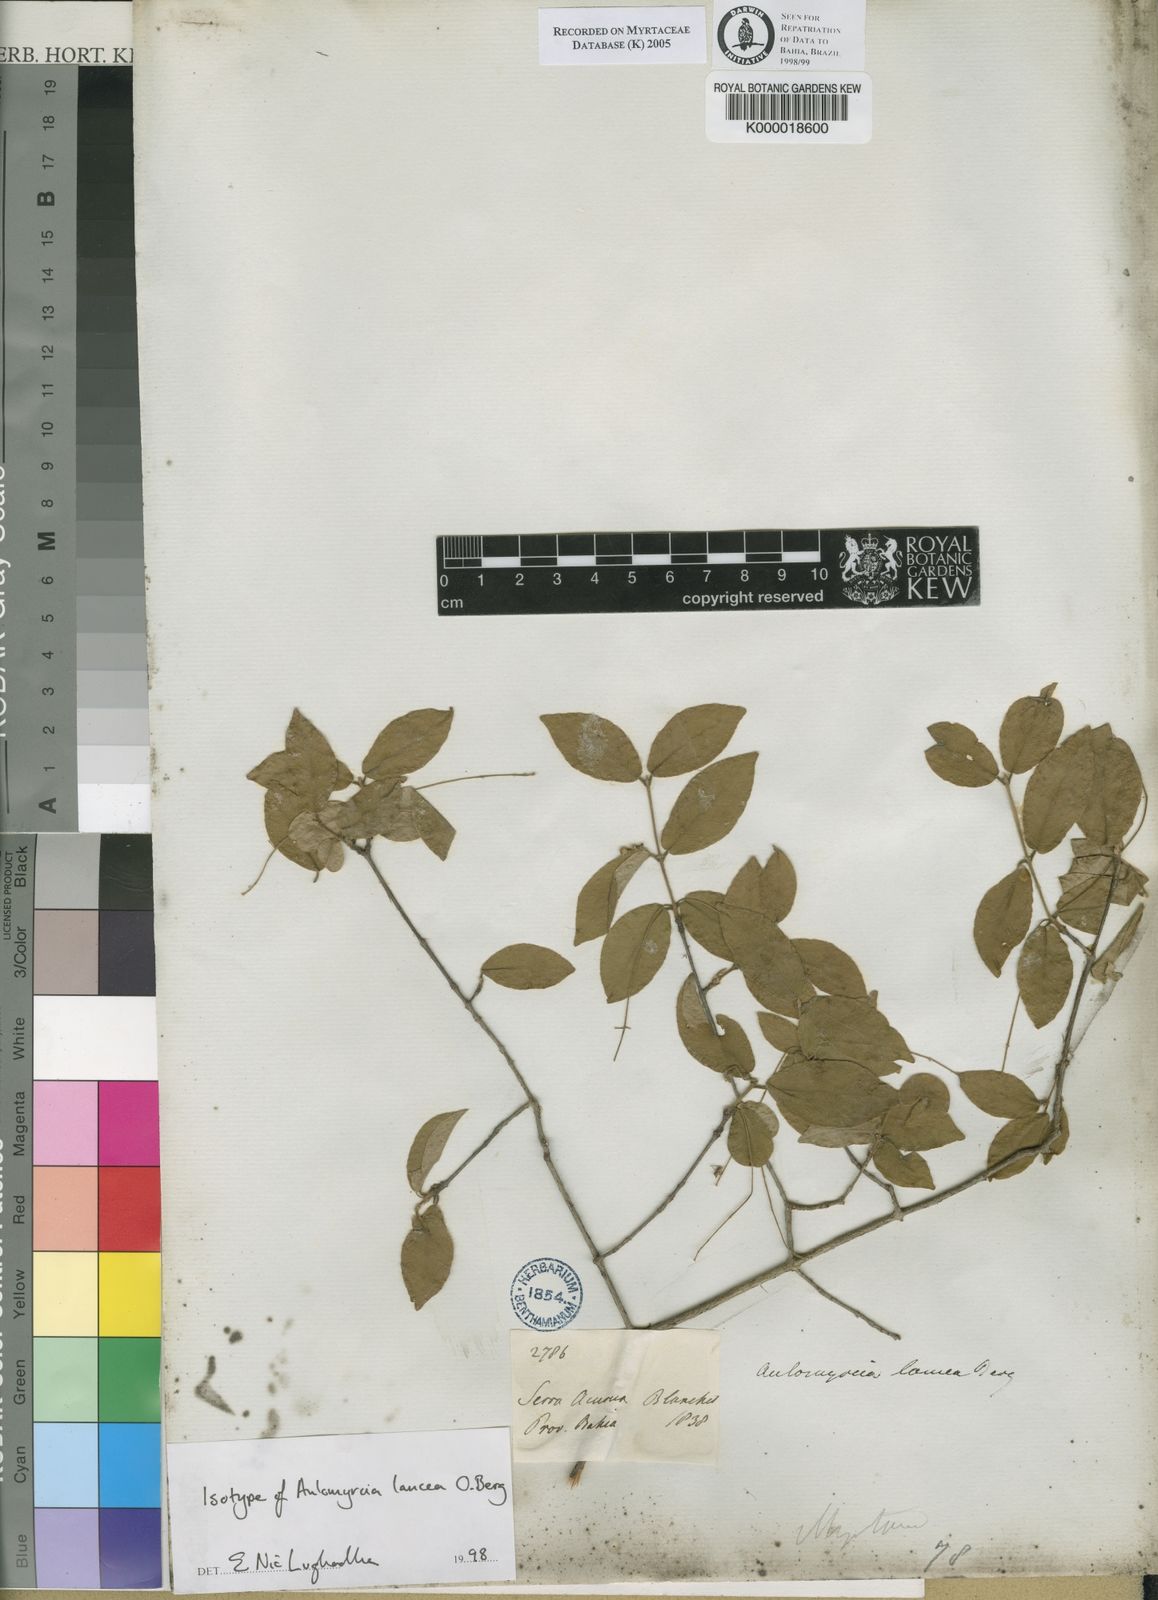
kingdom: Plantae
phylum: Tracheophyta
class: Magnoliopsida
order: Myrtales
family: Myrtaceae
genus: Myrcia
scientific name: Myrcia tomentosa
